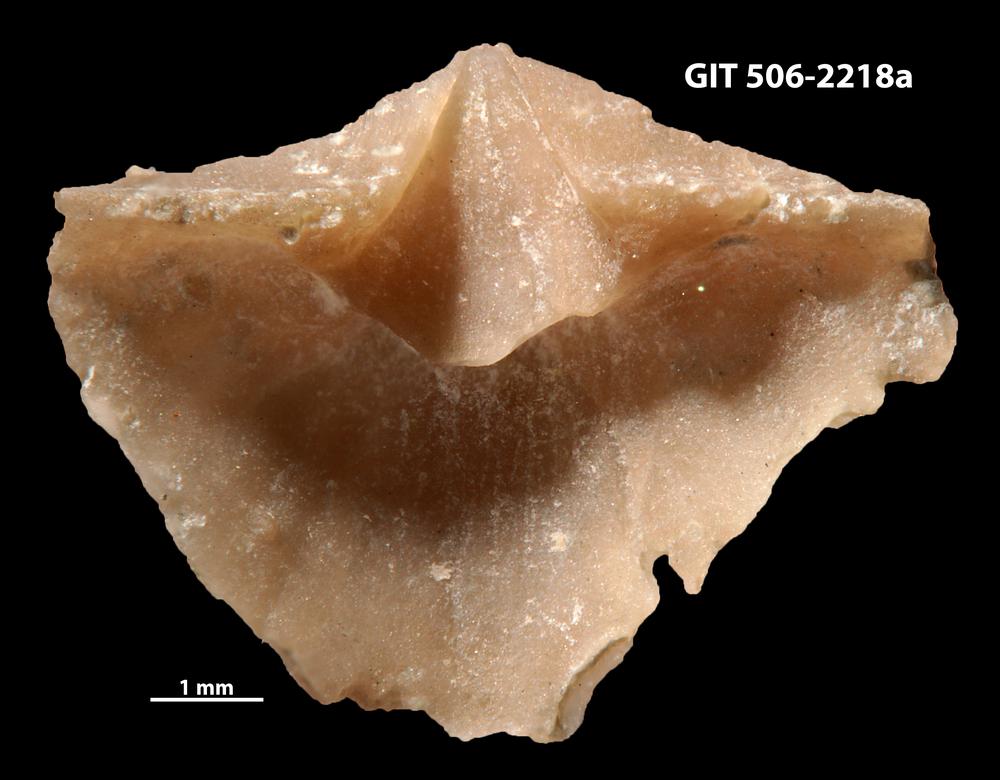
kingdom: Animalia
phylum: Brachiopoda
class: Rhynchonellata
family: Skenidiidae
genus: Skenidioides
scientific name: Skenidioides hymiri
